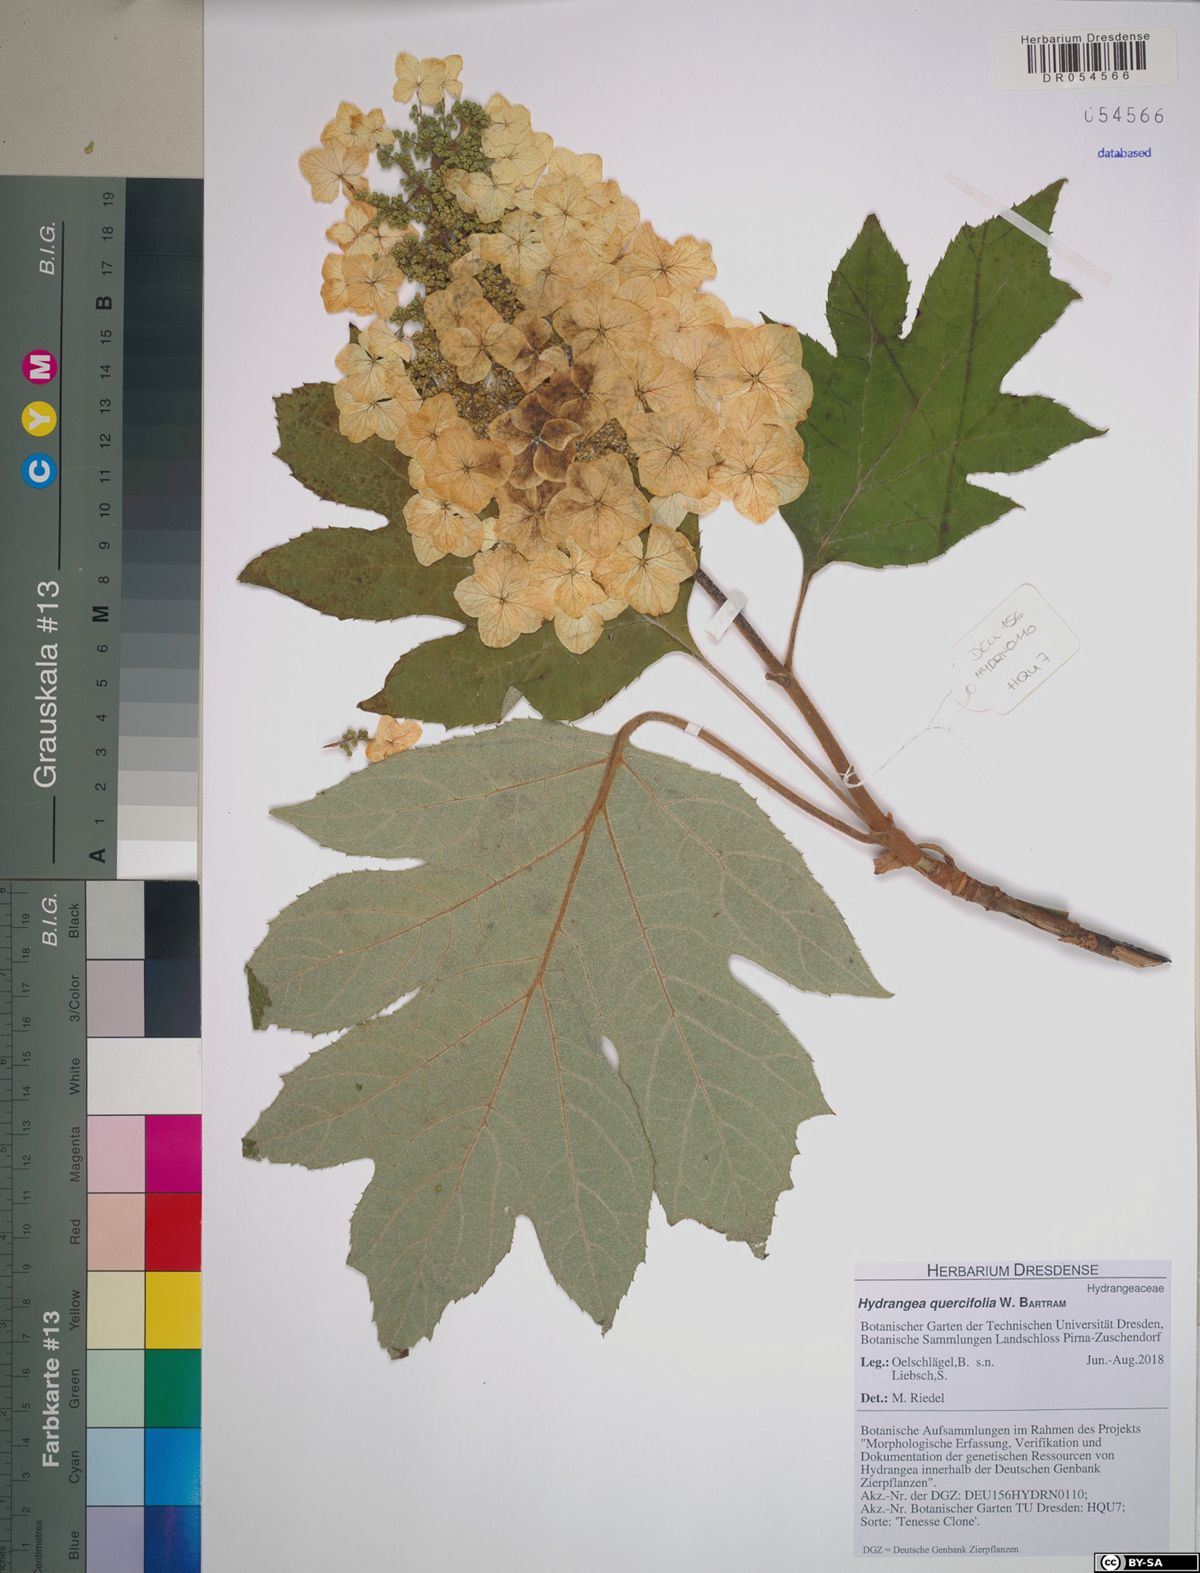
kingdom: Plantae
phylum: Tracheophyta
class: Magnoliopsida
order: Cornales
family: Hydrangeaceae
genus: Hydrangea
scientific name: Hydrangea quercifolia
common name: Oak-leaf hydrangea
